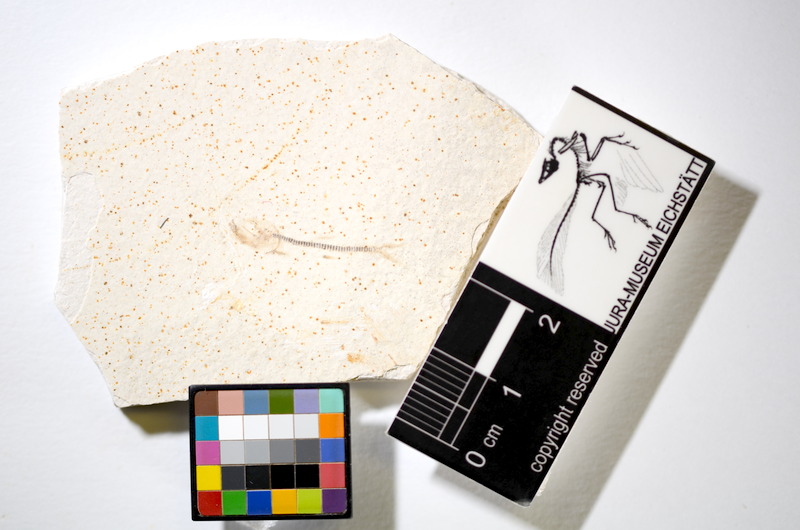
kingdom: Animalia
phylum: Chordata
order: Salmoniformes
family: Orthogonikleithridae
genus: Orthogonikleithrus
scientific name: Orthogonikleithrus hoelli
